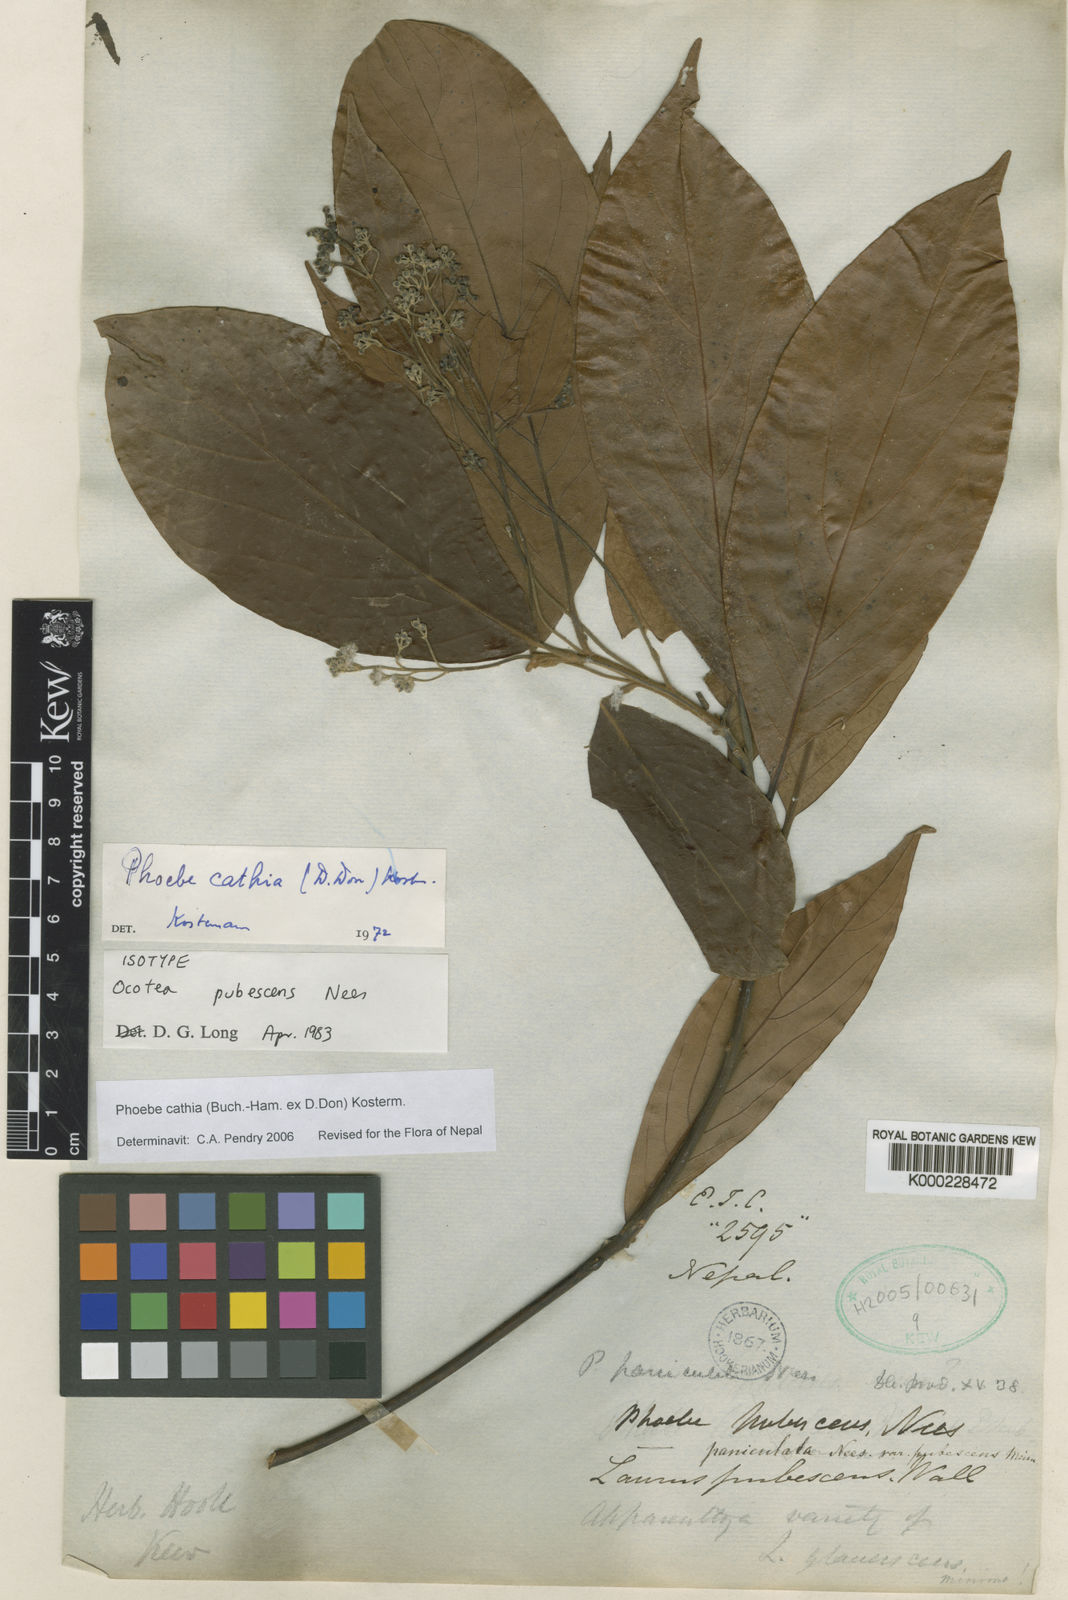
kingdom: Plantae
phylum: Tracheophyta
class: Magnoliopsida
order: Laurales
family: Lauraceae
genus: Phoebe
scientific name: Phoebe cathia
